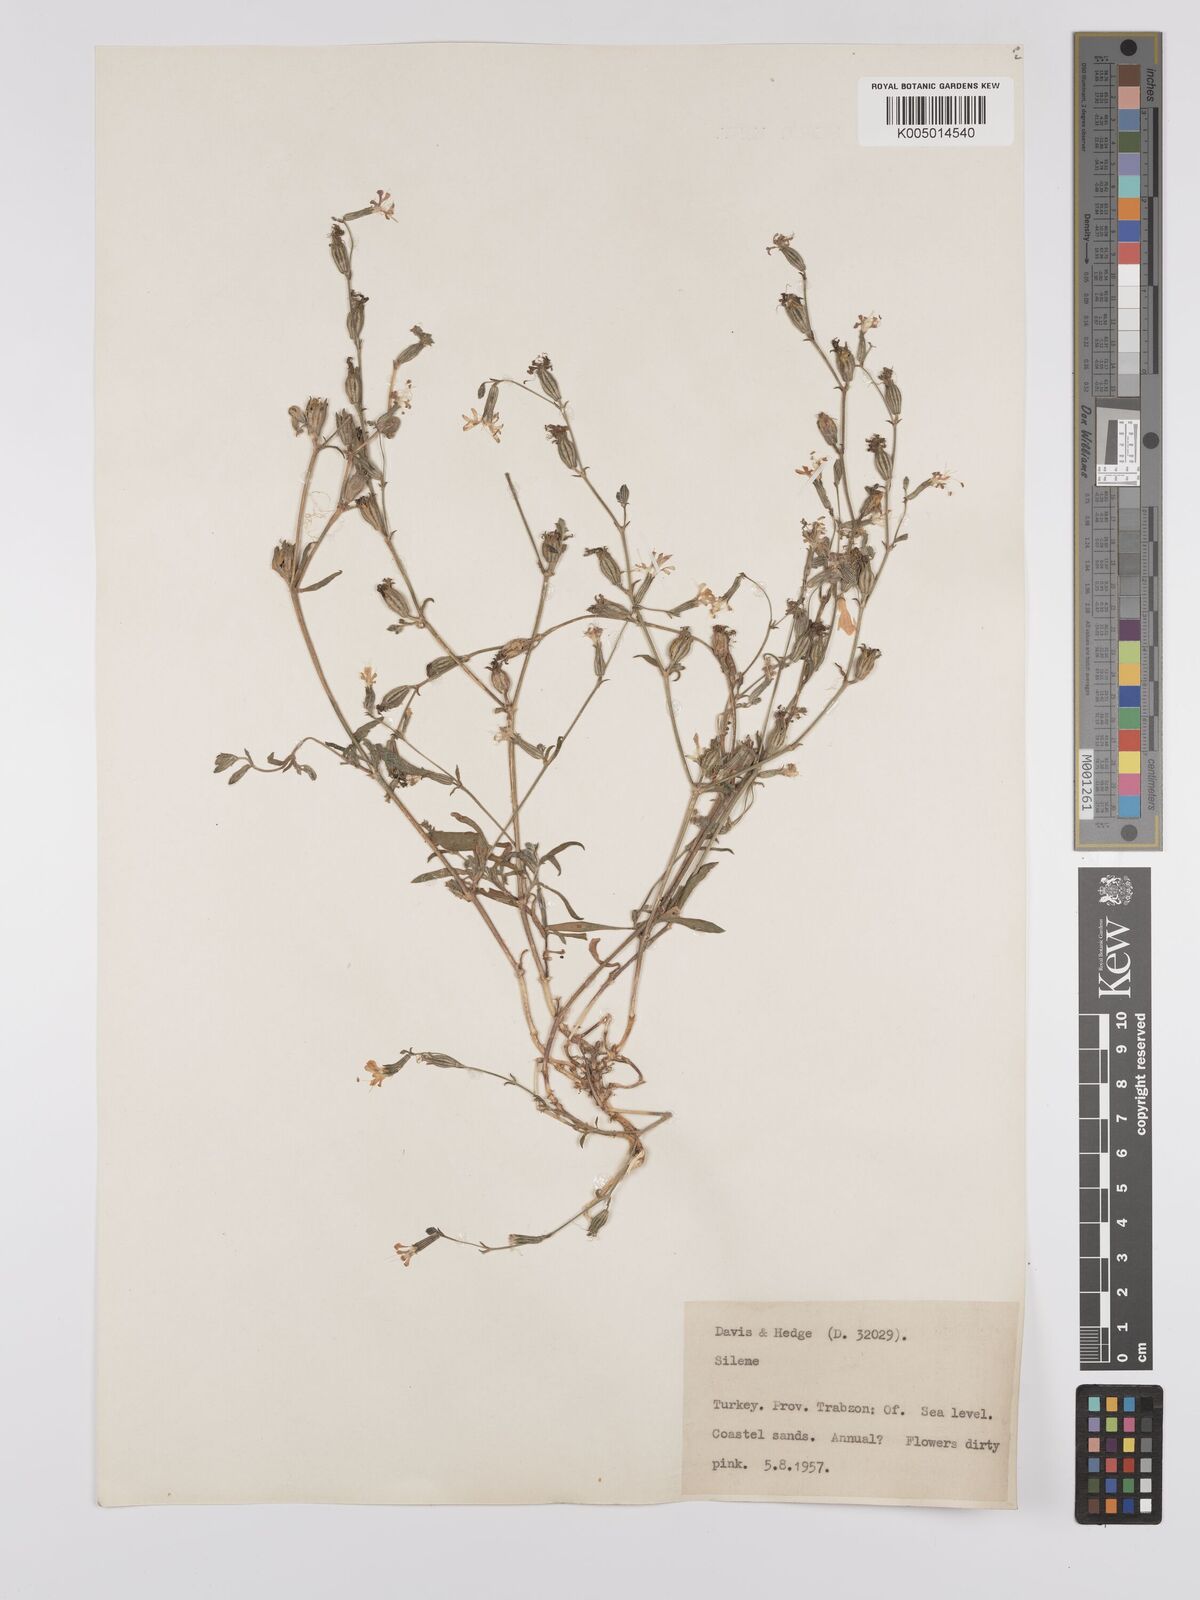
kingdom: Plantae
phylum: Tracheophyta
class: Magnoliopsida
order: Caryophyllales
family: Caryophyllaceae
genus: Silene
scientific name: Silene
